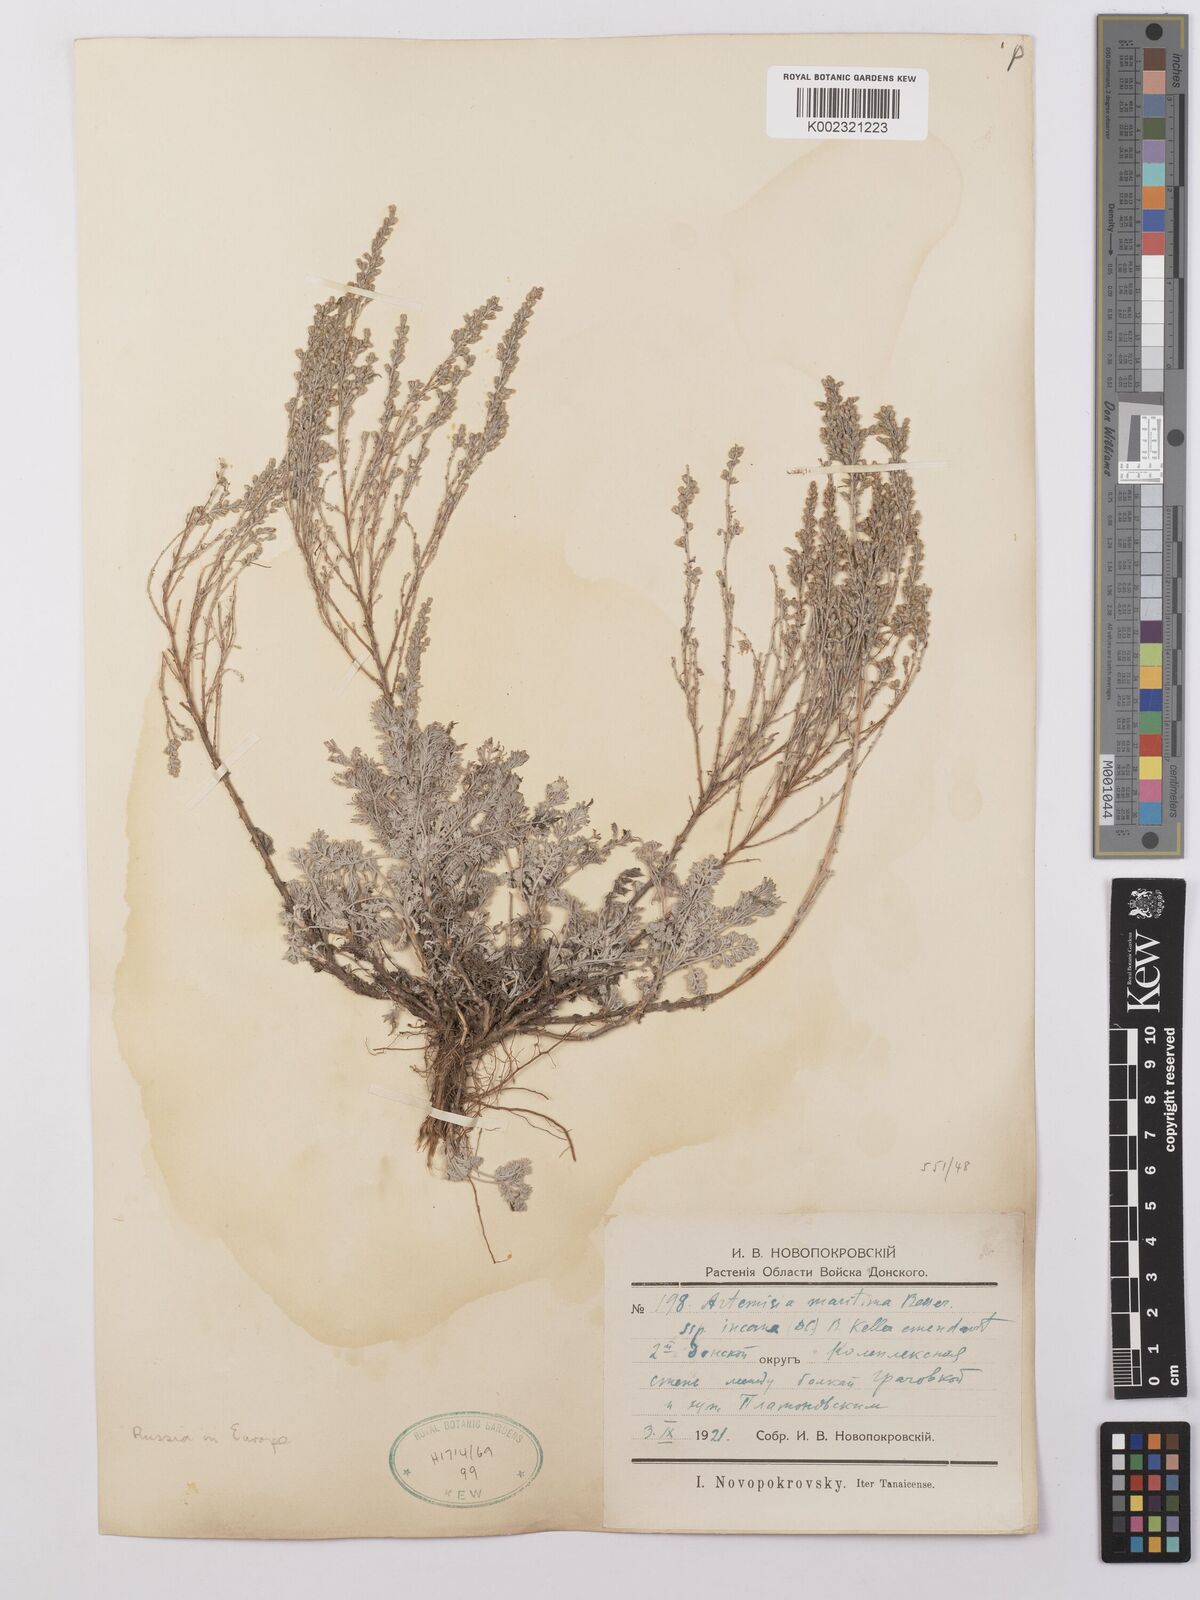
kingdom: Plantae
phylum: Tracheophyta
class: Magnoliopsida
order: Asterales
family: Asteraceae
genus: Artemisia
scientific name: Artemisia maritima
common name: Wormseed
